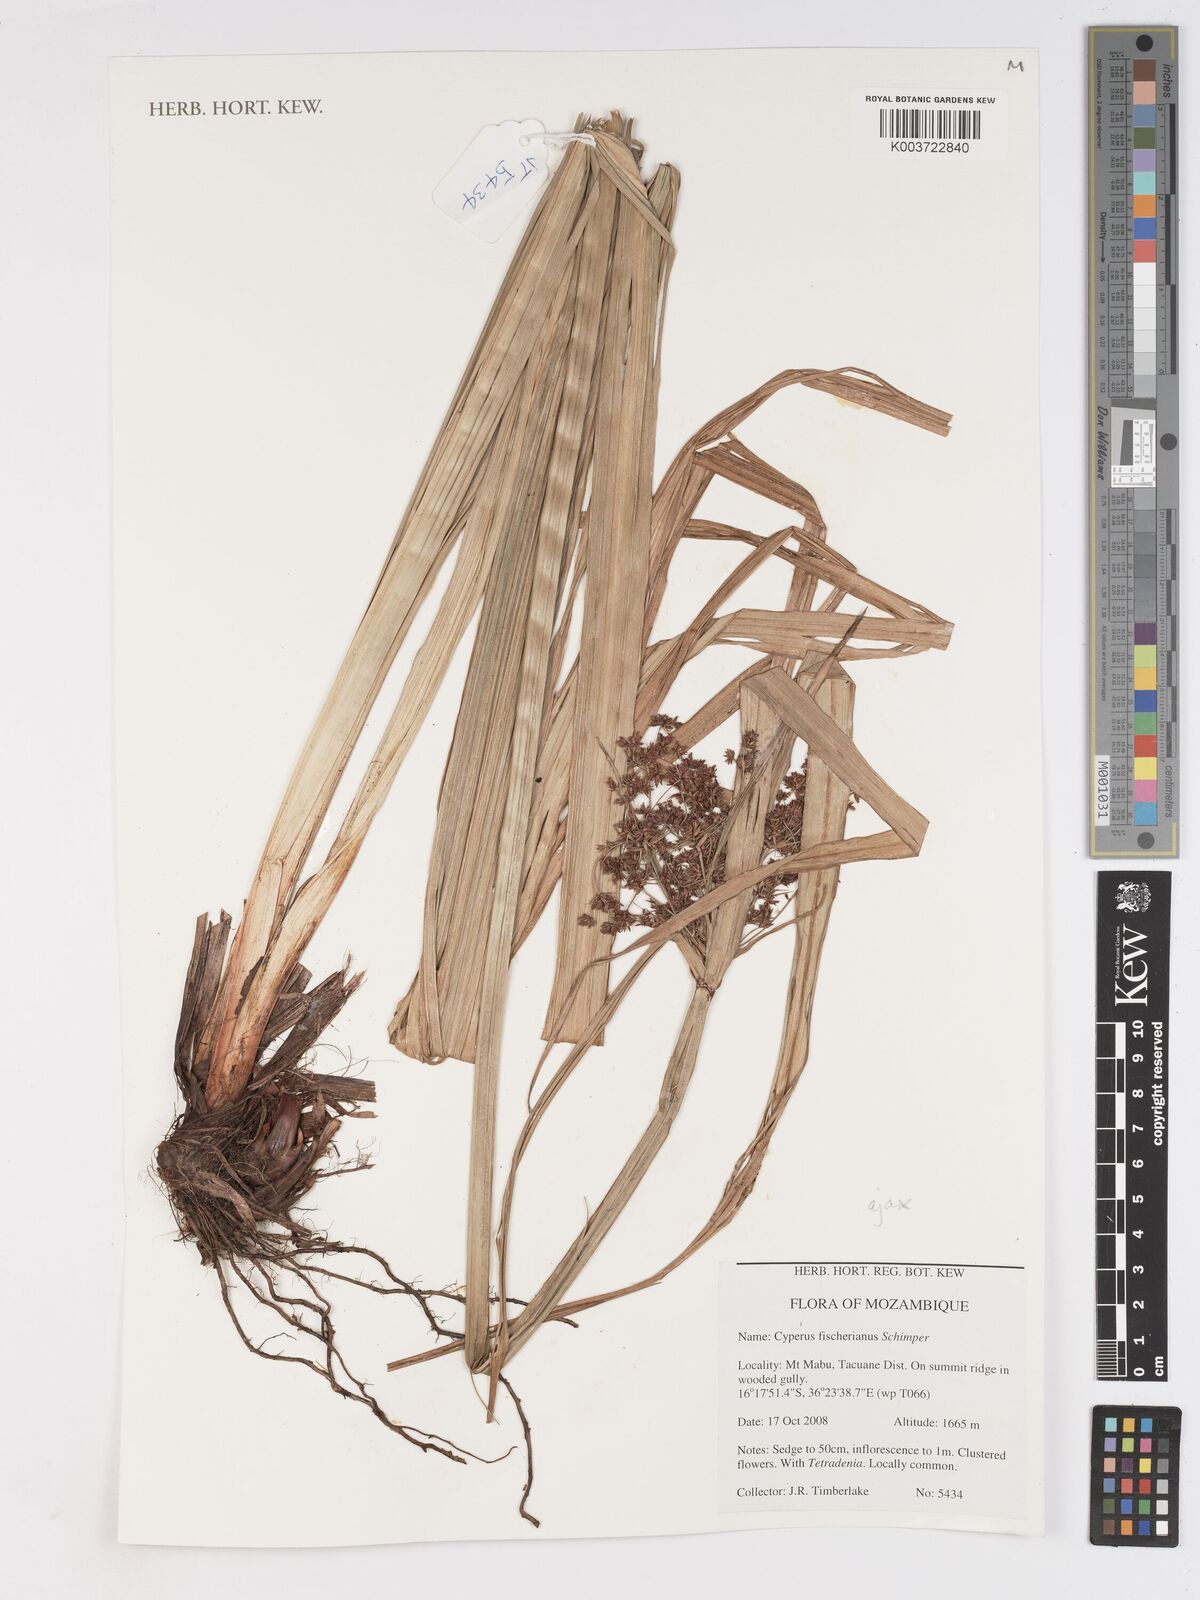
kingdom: Plantae
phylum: Tracheophyta
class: Liliopsida
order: Poales
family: Cyperaceae
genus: Cyperus
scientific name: Cyperus fischerianus
